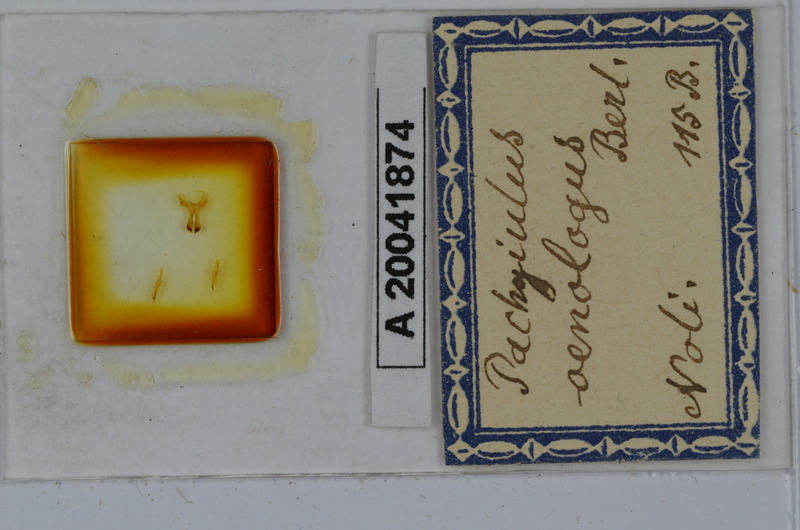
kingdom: Animalia
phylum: Arthropoda
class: Diplopoda
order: Julida
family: Julidae
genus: Pachyiulus
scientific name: Pachyiulus oenologus
